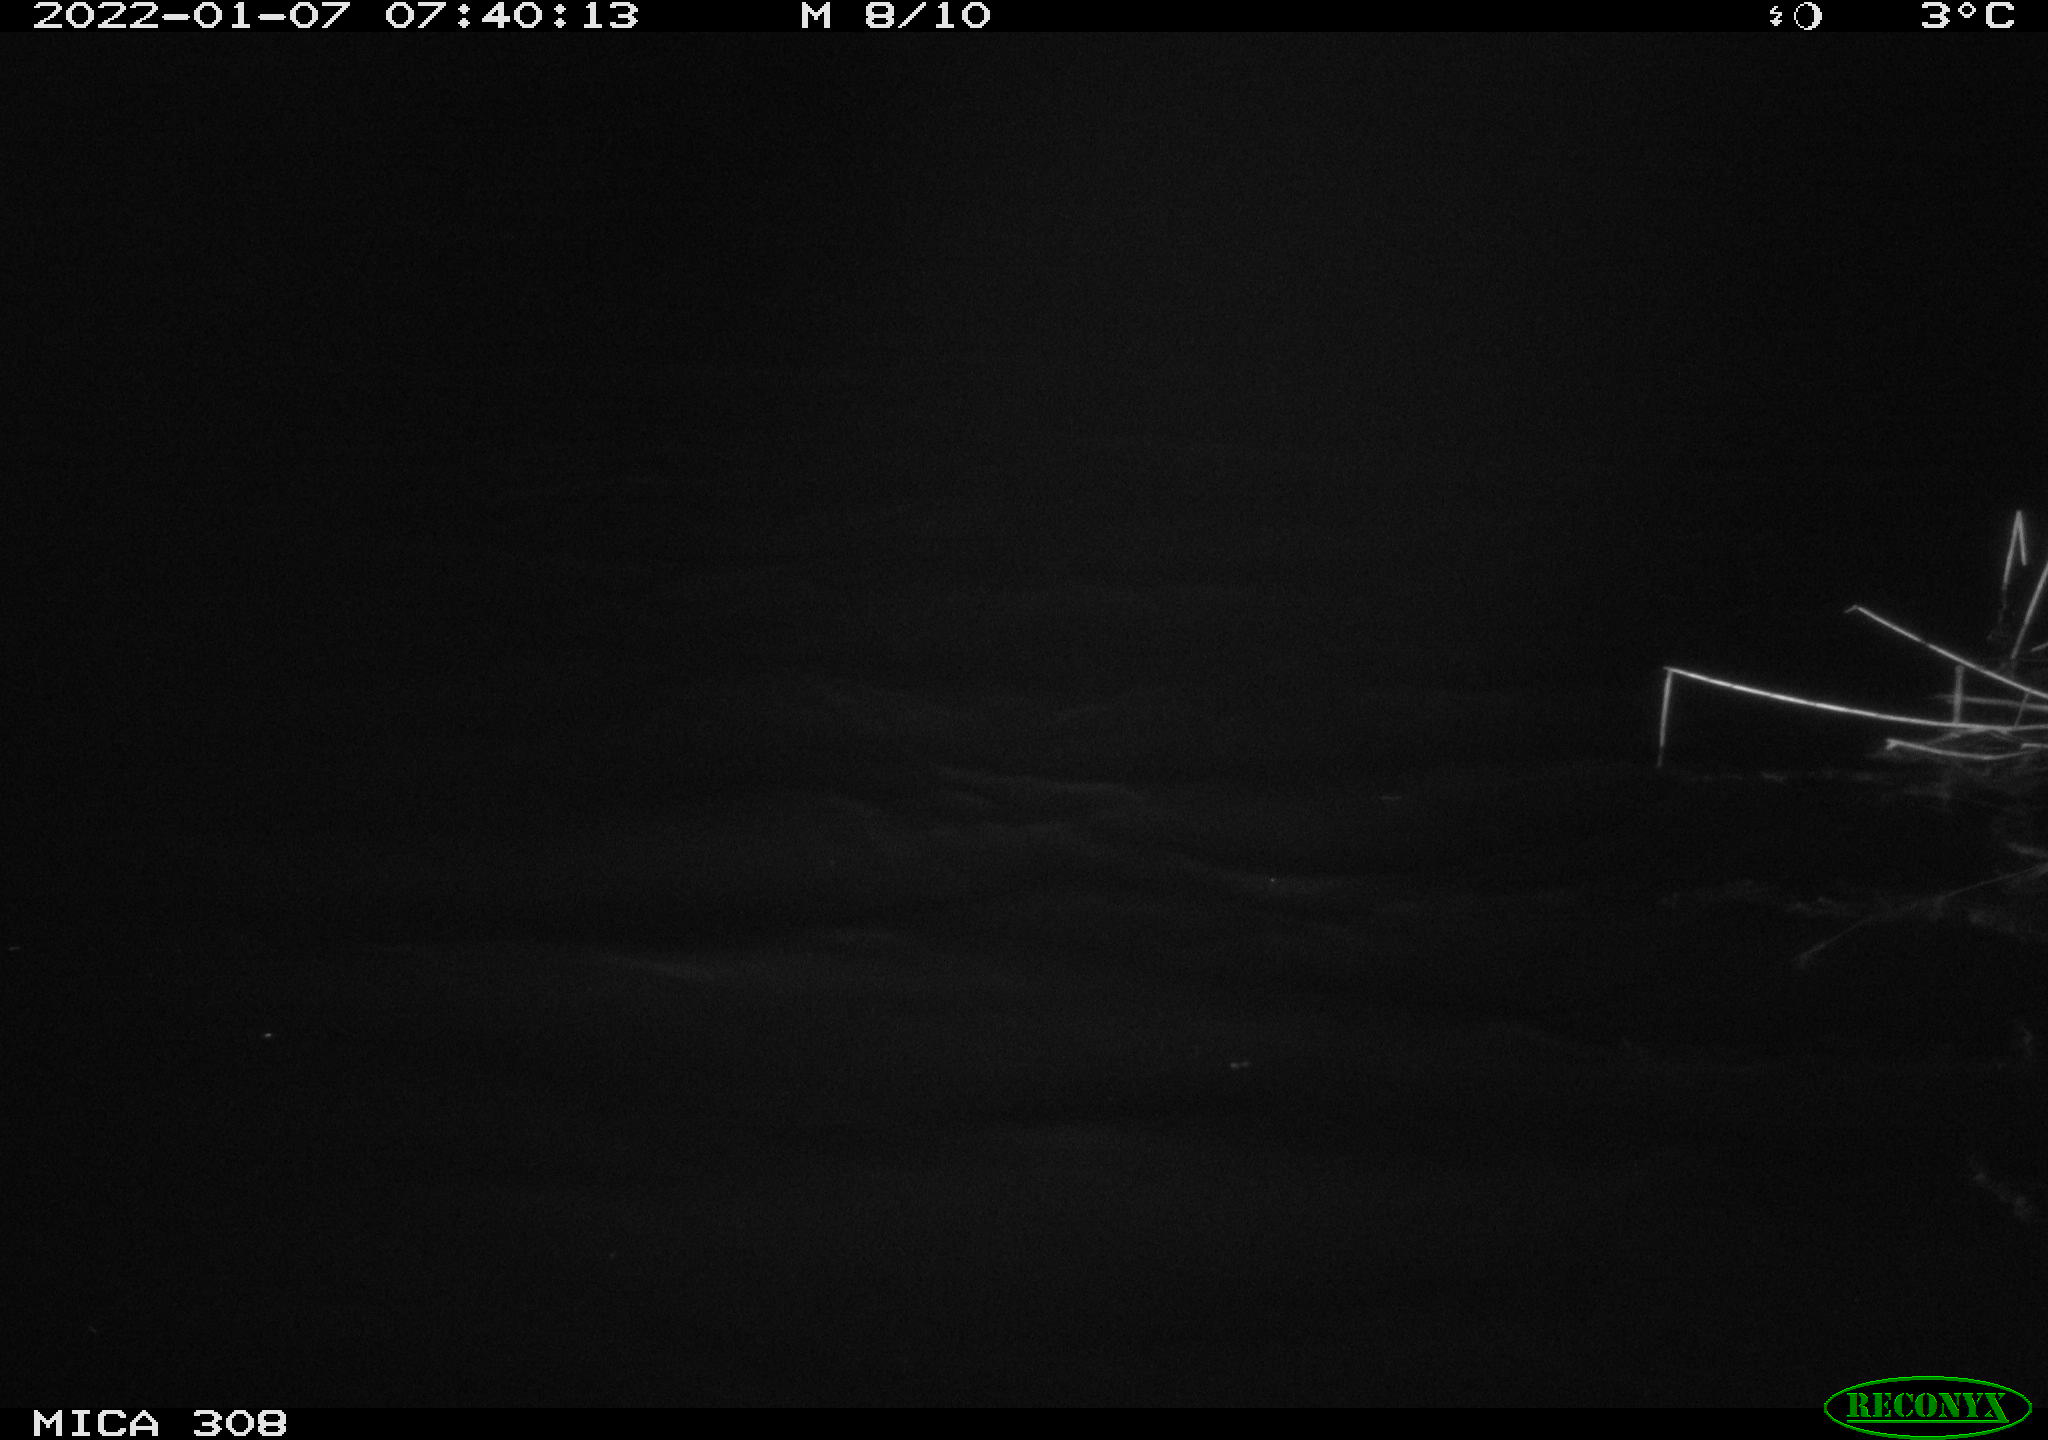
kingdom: Animalia
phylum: Chordata
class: Aves
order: Gruiformes
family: Rallidae
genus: Gallinula
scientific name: Gallinula chloropus
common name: Common moorhen
